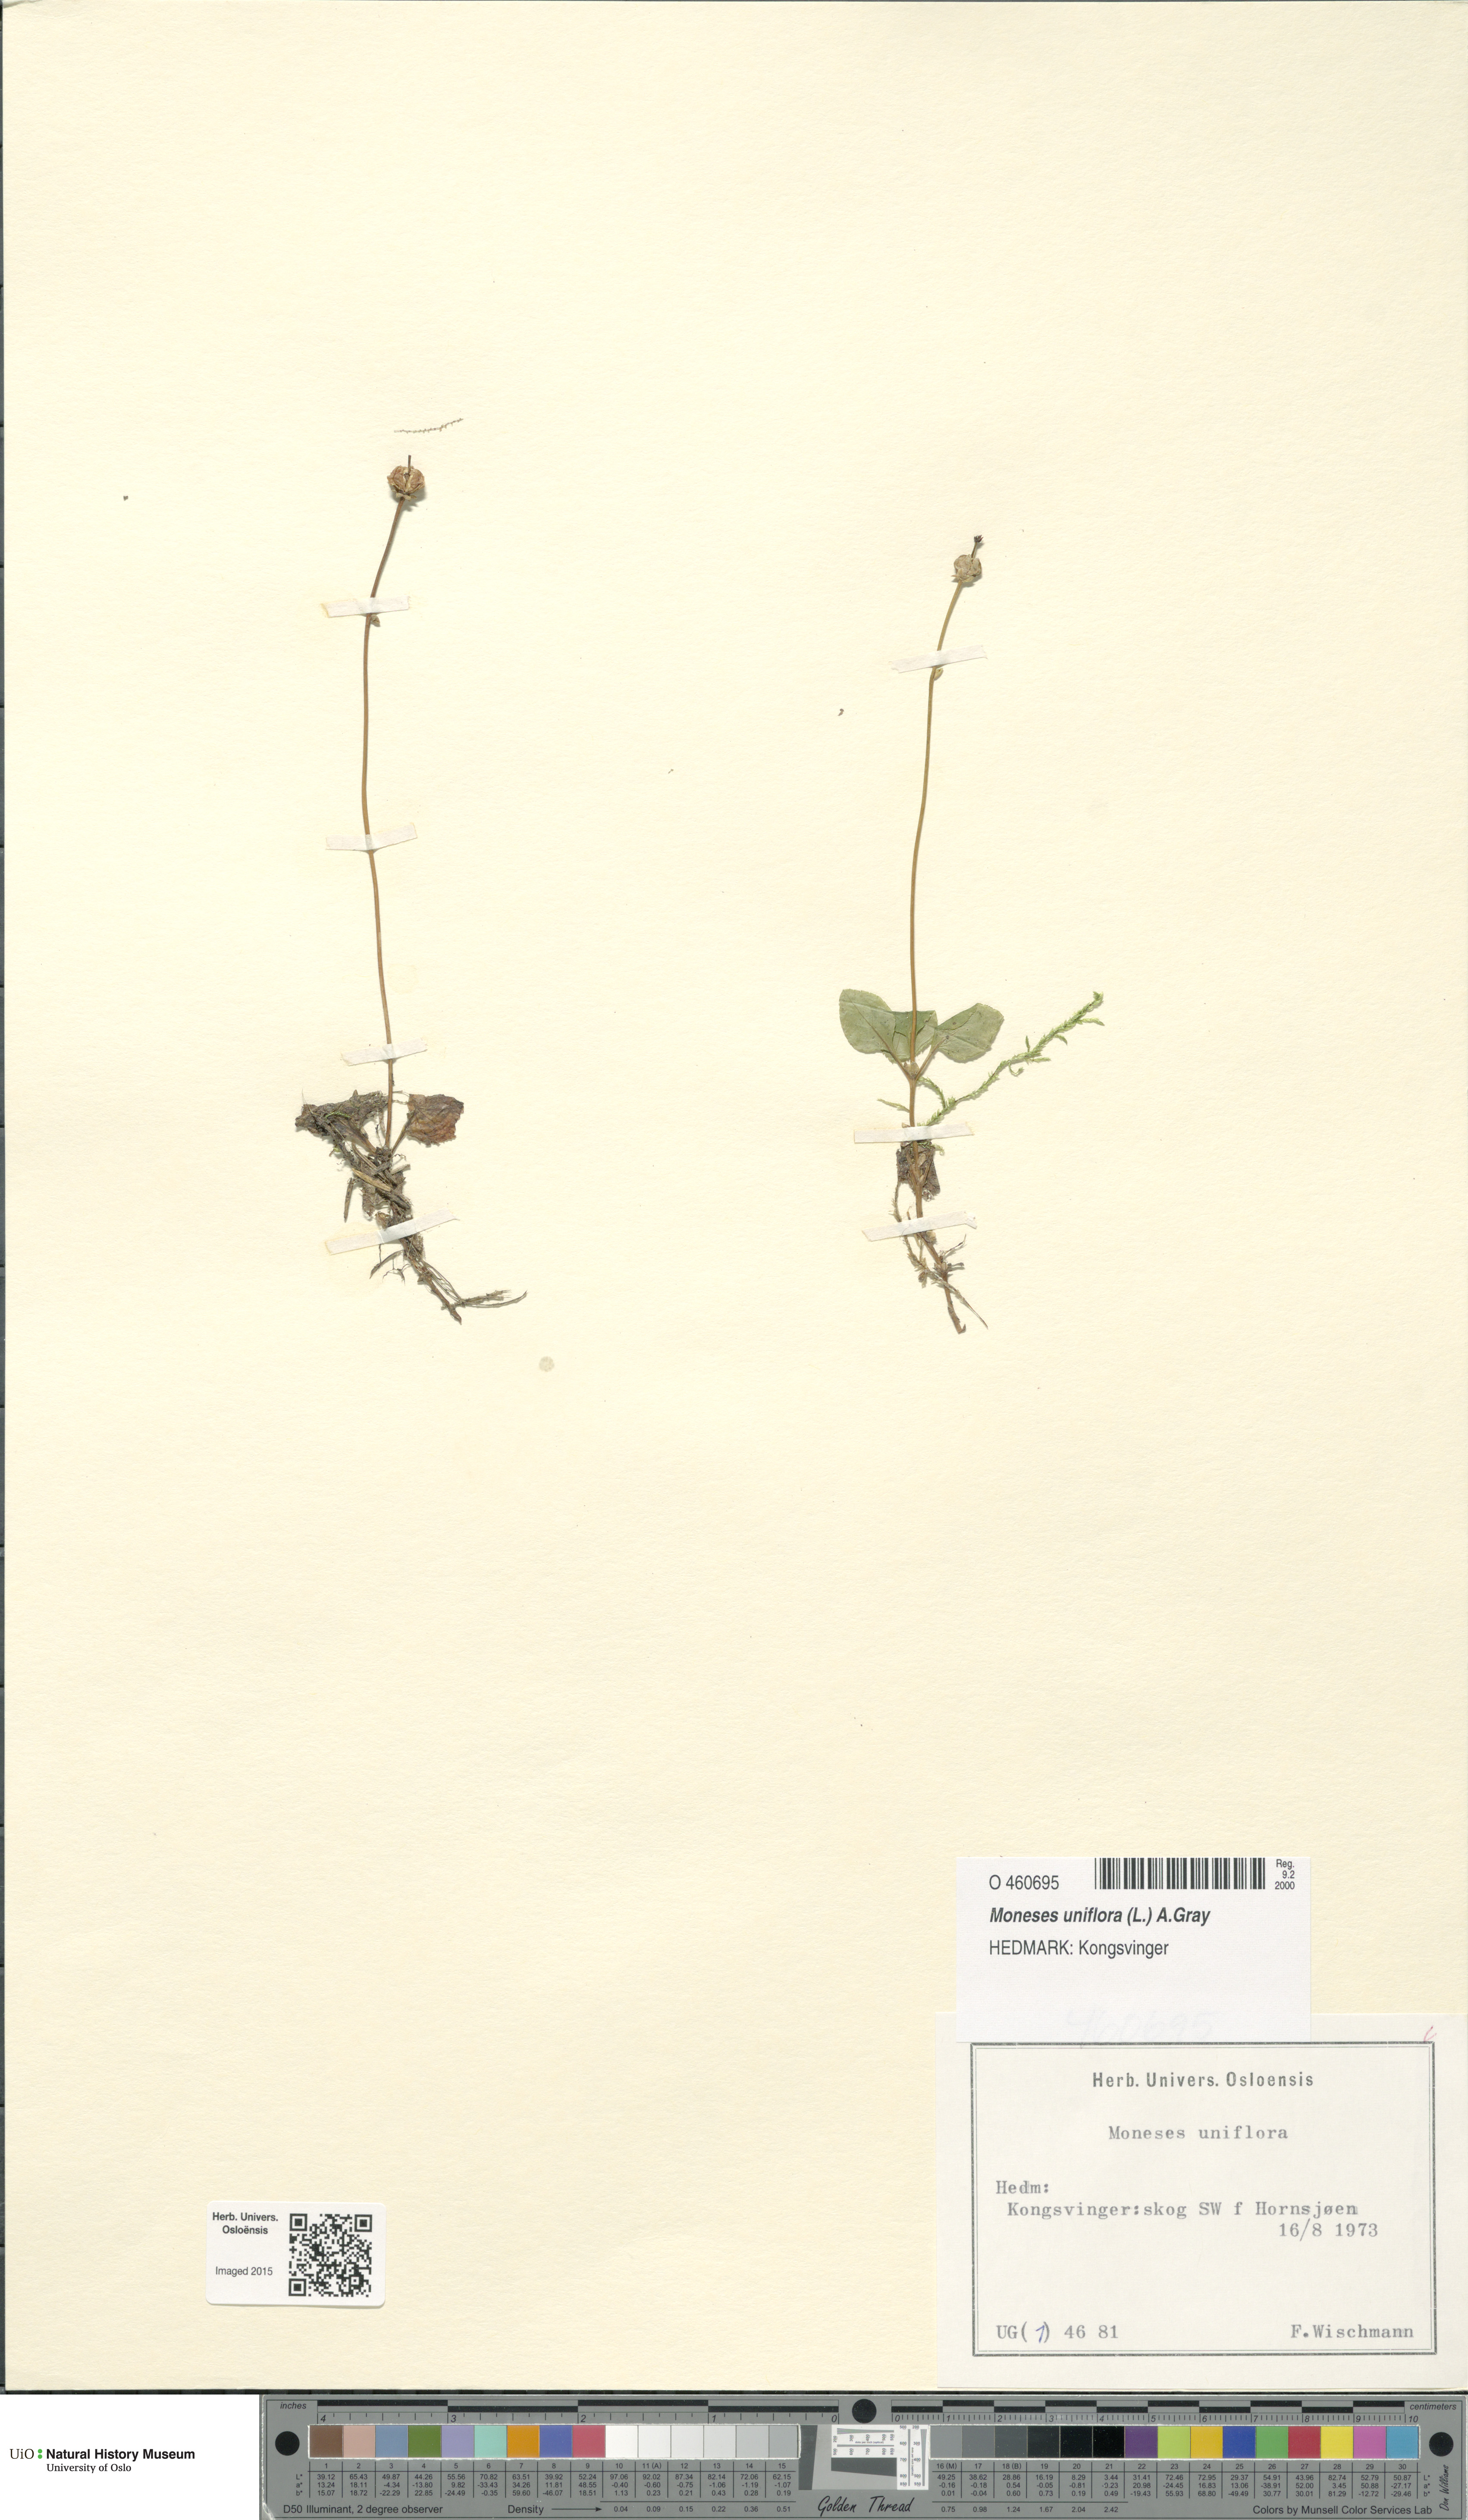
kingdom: Plantae
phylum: Tracheophyta
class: Magnoliopsida
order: Ericales
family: Ericaceae
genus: Moneses
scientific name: Moneses uniflora
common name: One-flowered wintergreen
